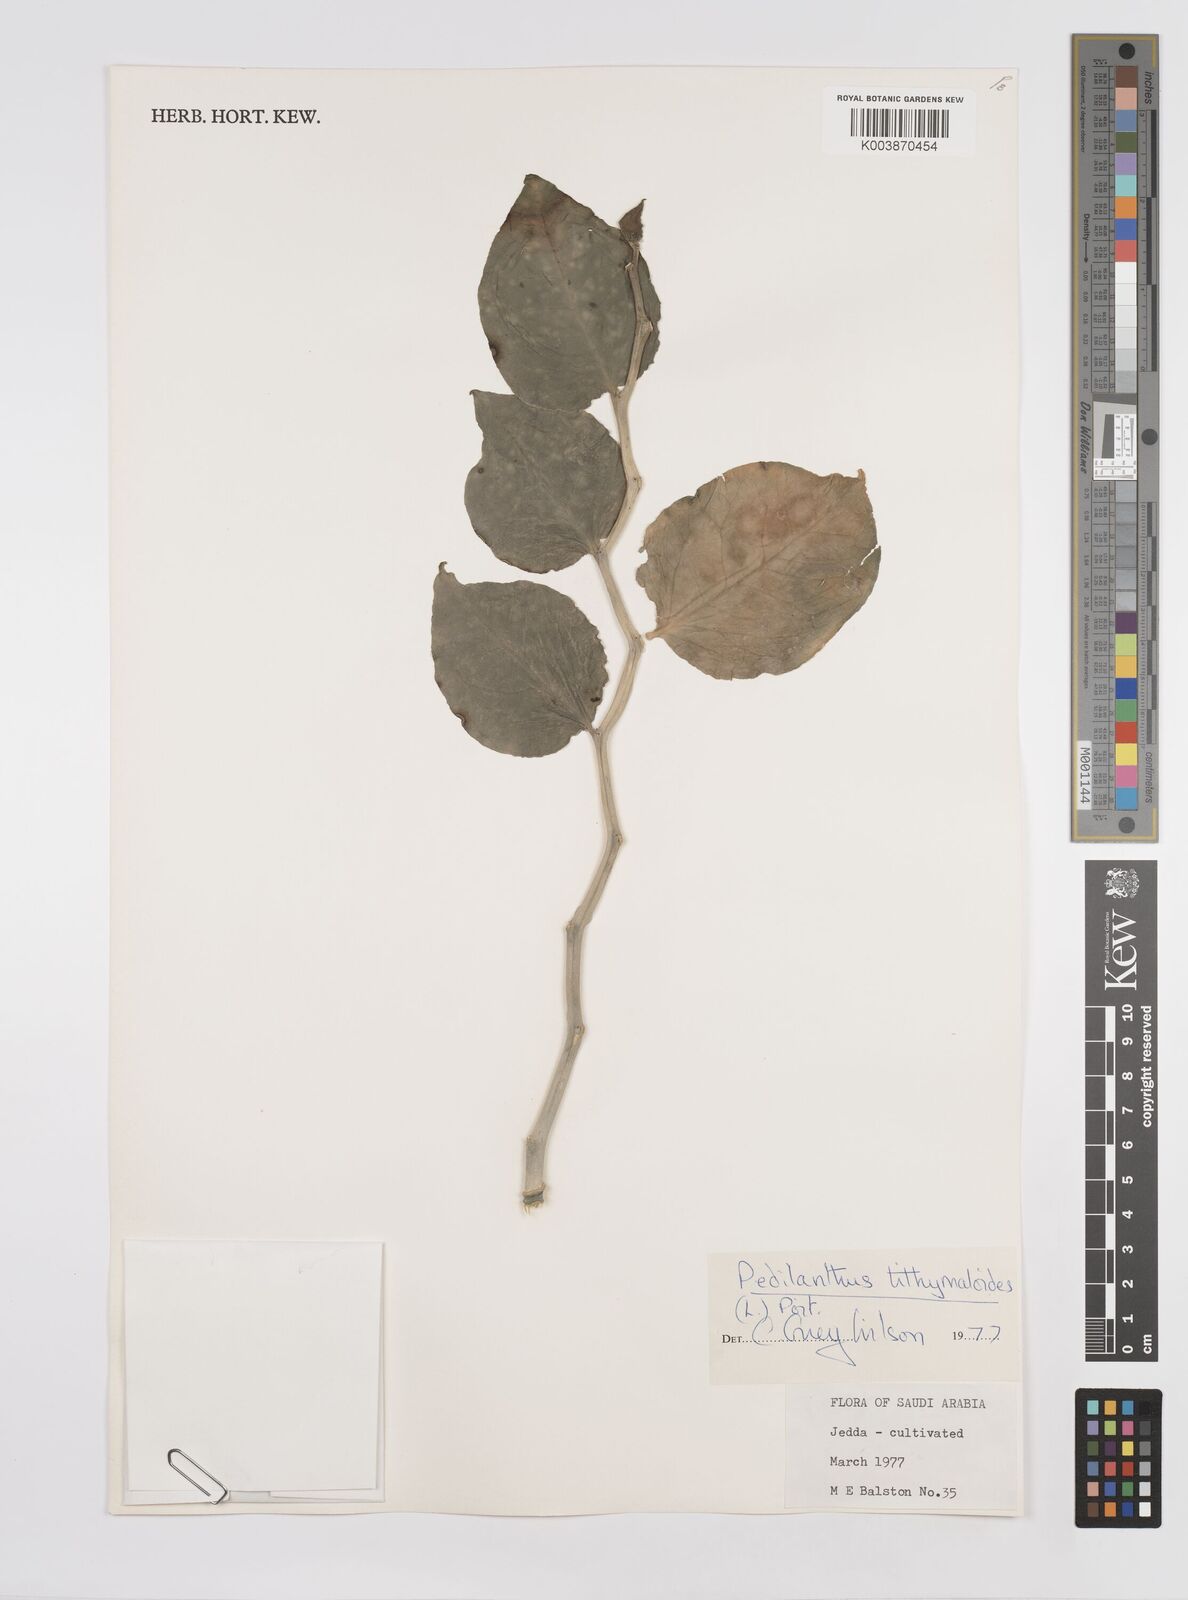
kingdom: Plantae
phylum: Tracheophyta
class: Magnoliopsida
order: Malpighiales
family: Euphorbiaceae
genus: Euphorbia
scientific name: Euphorbia tithymaloides
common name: Slipperplant
